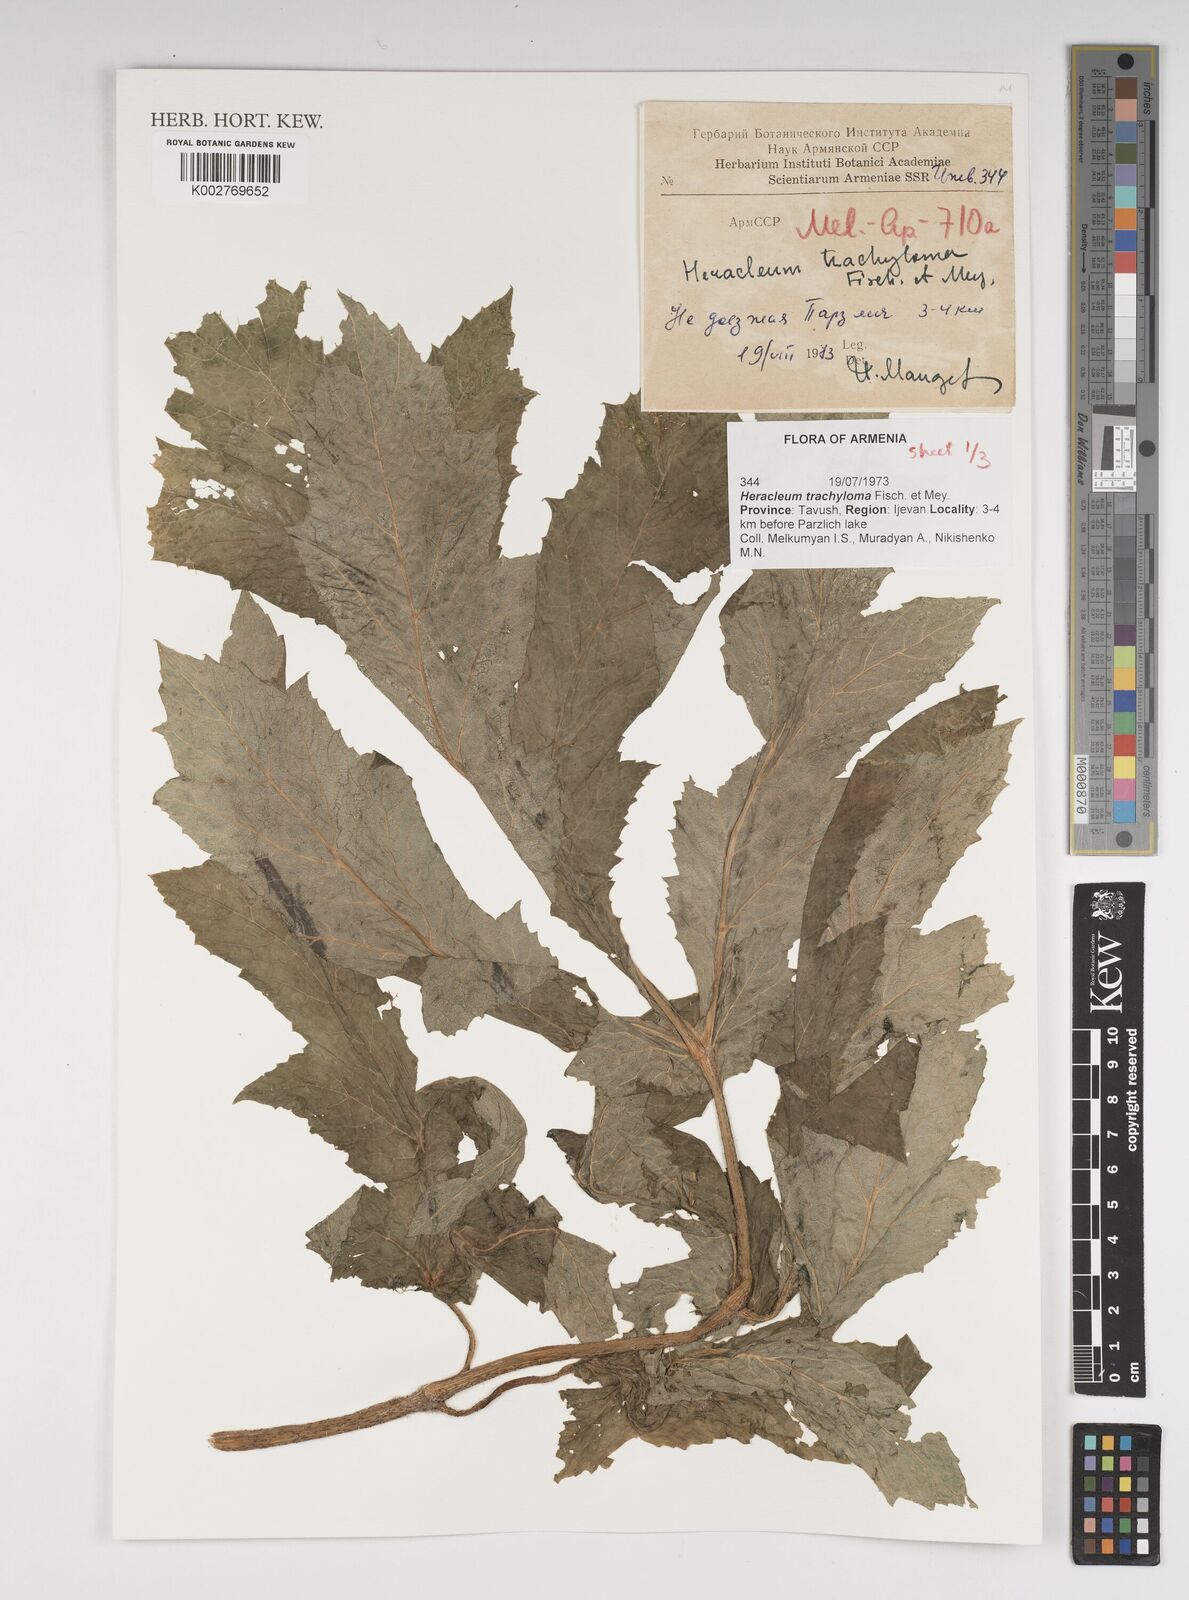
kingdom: Plantae
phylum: Tracheophyta
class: Magnoliopsida
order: Apiales
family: Apiaceae
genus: Heracleum
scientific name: Heracleum trachyloma
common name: Downy cow-parsnip
